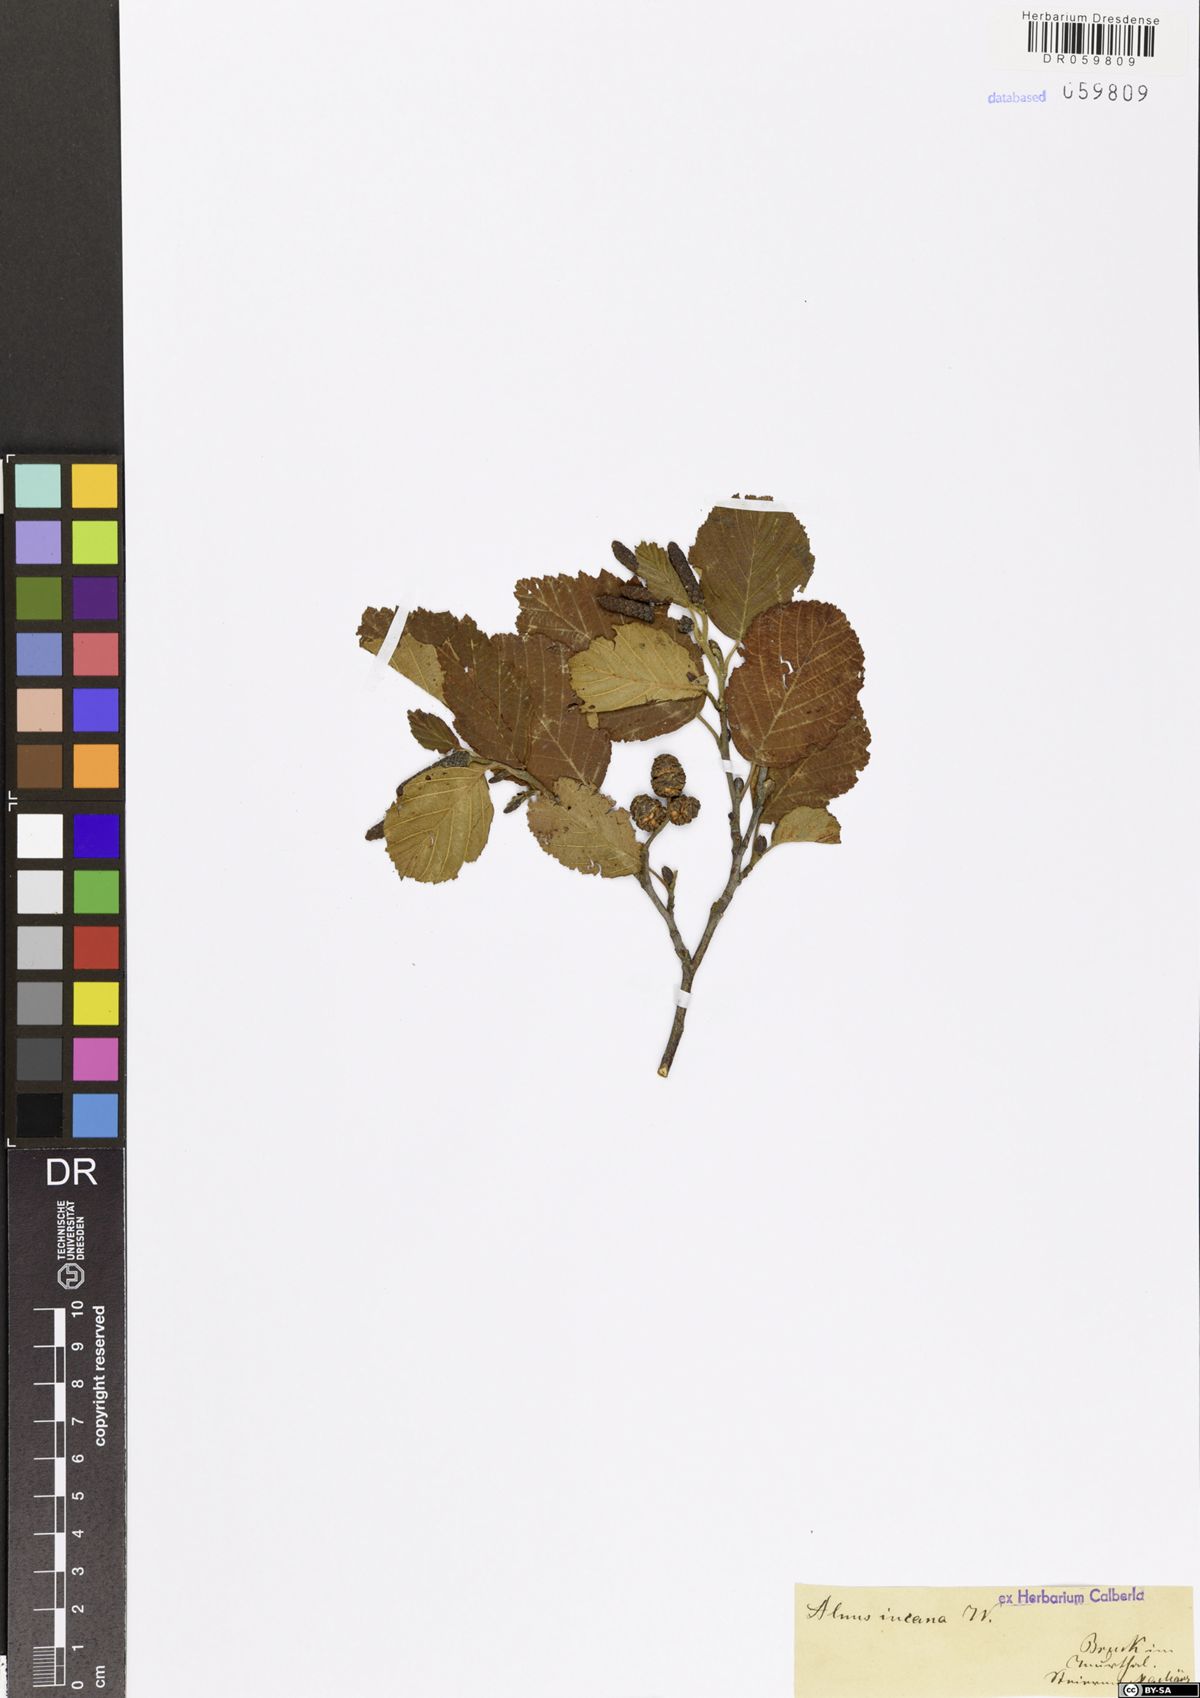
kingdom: Plantae
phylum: Tracheophyta
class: Magnoliopsida
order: Fagales
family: Betulaceae
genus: Alnus
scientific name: Alnus incana
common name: Grey alder
